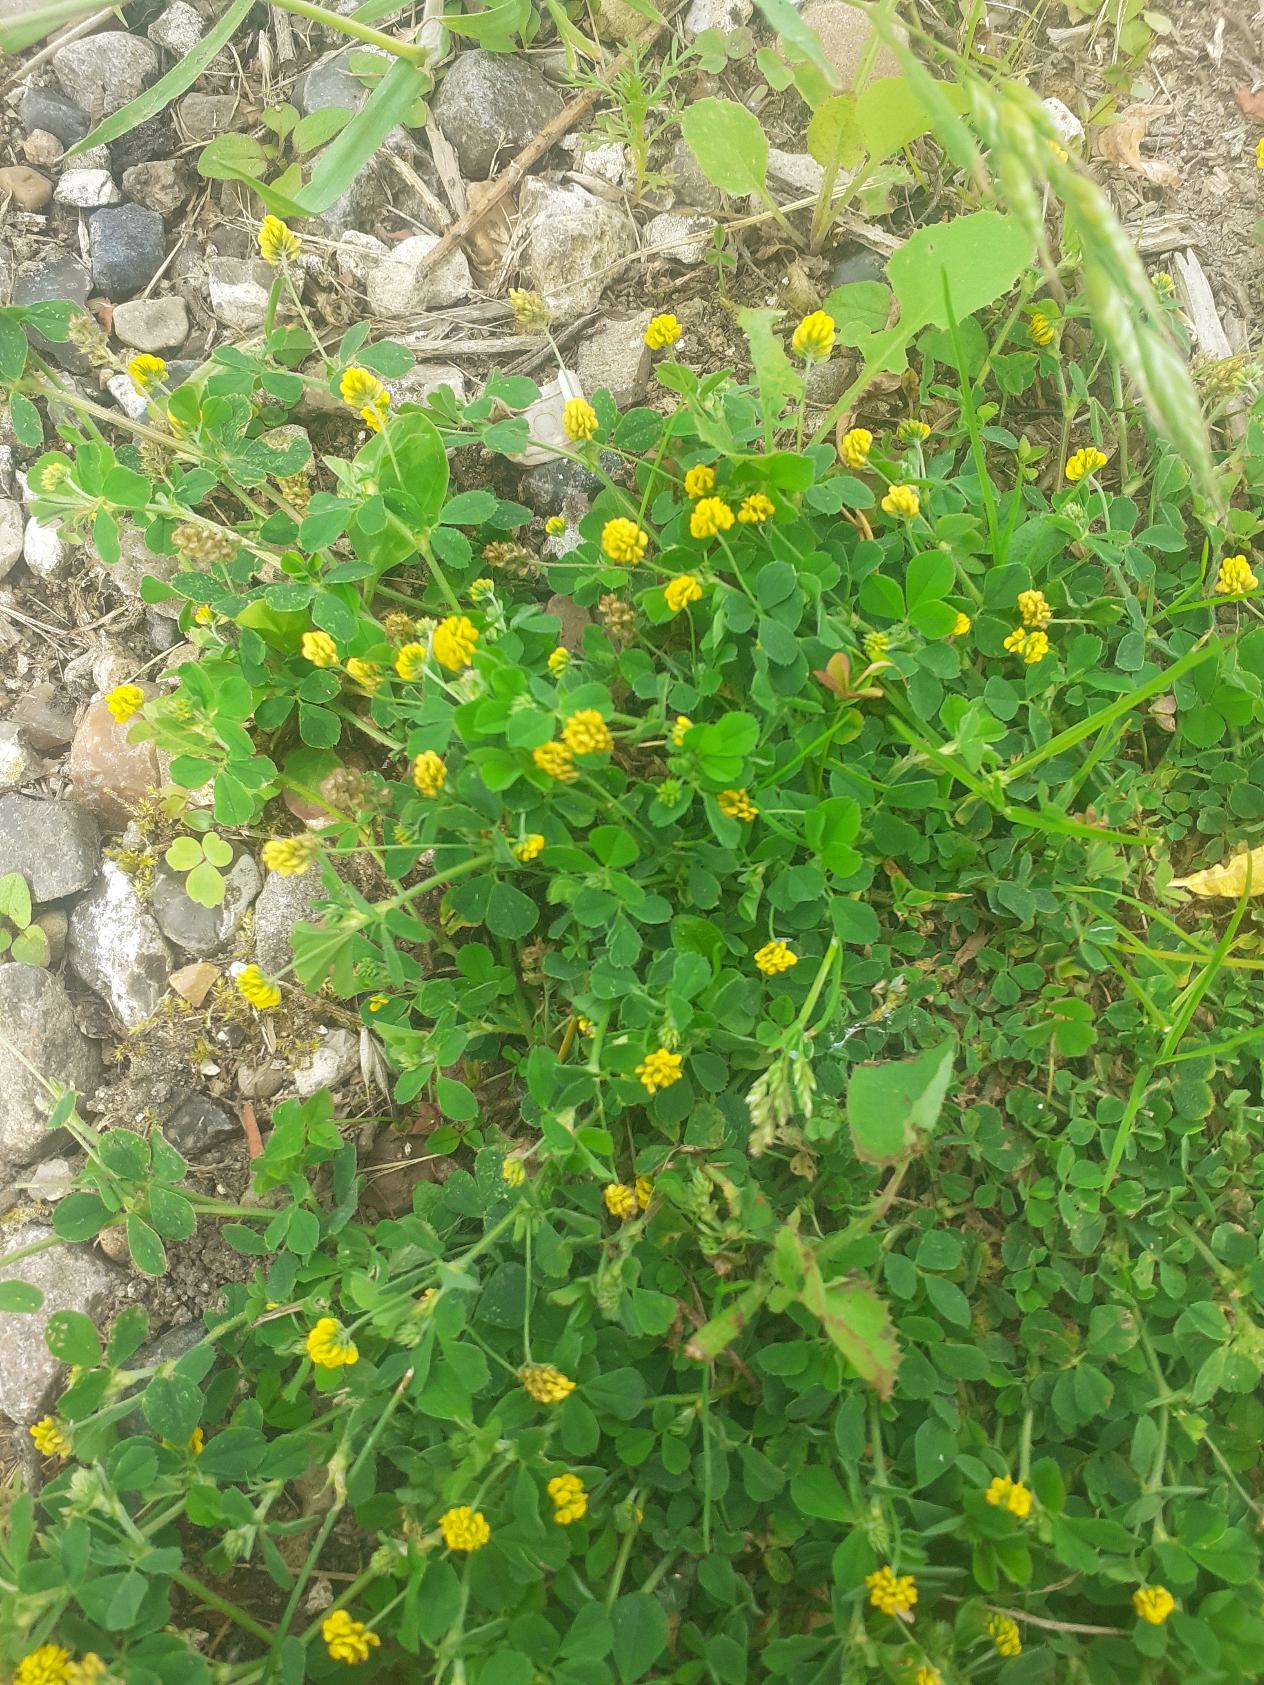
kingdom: Plantae
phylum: Tracheophyta
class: Magnoliopsida
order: Fabales
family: Fabaceae
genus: Medicago
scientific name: Medicago lupulina
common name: Humle-sneglebælg
